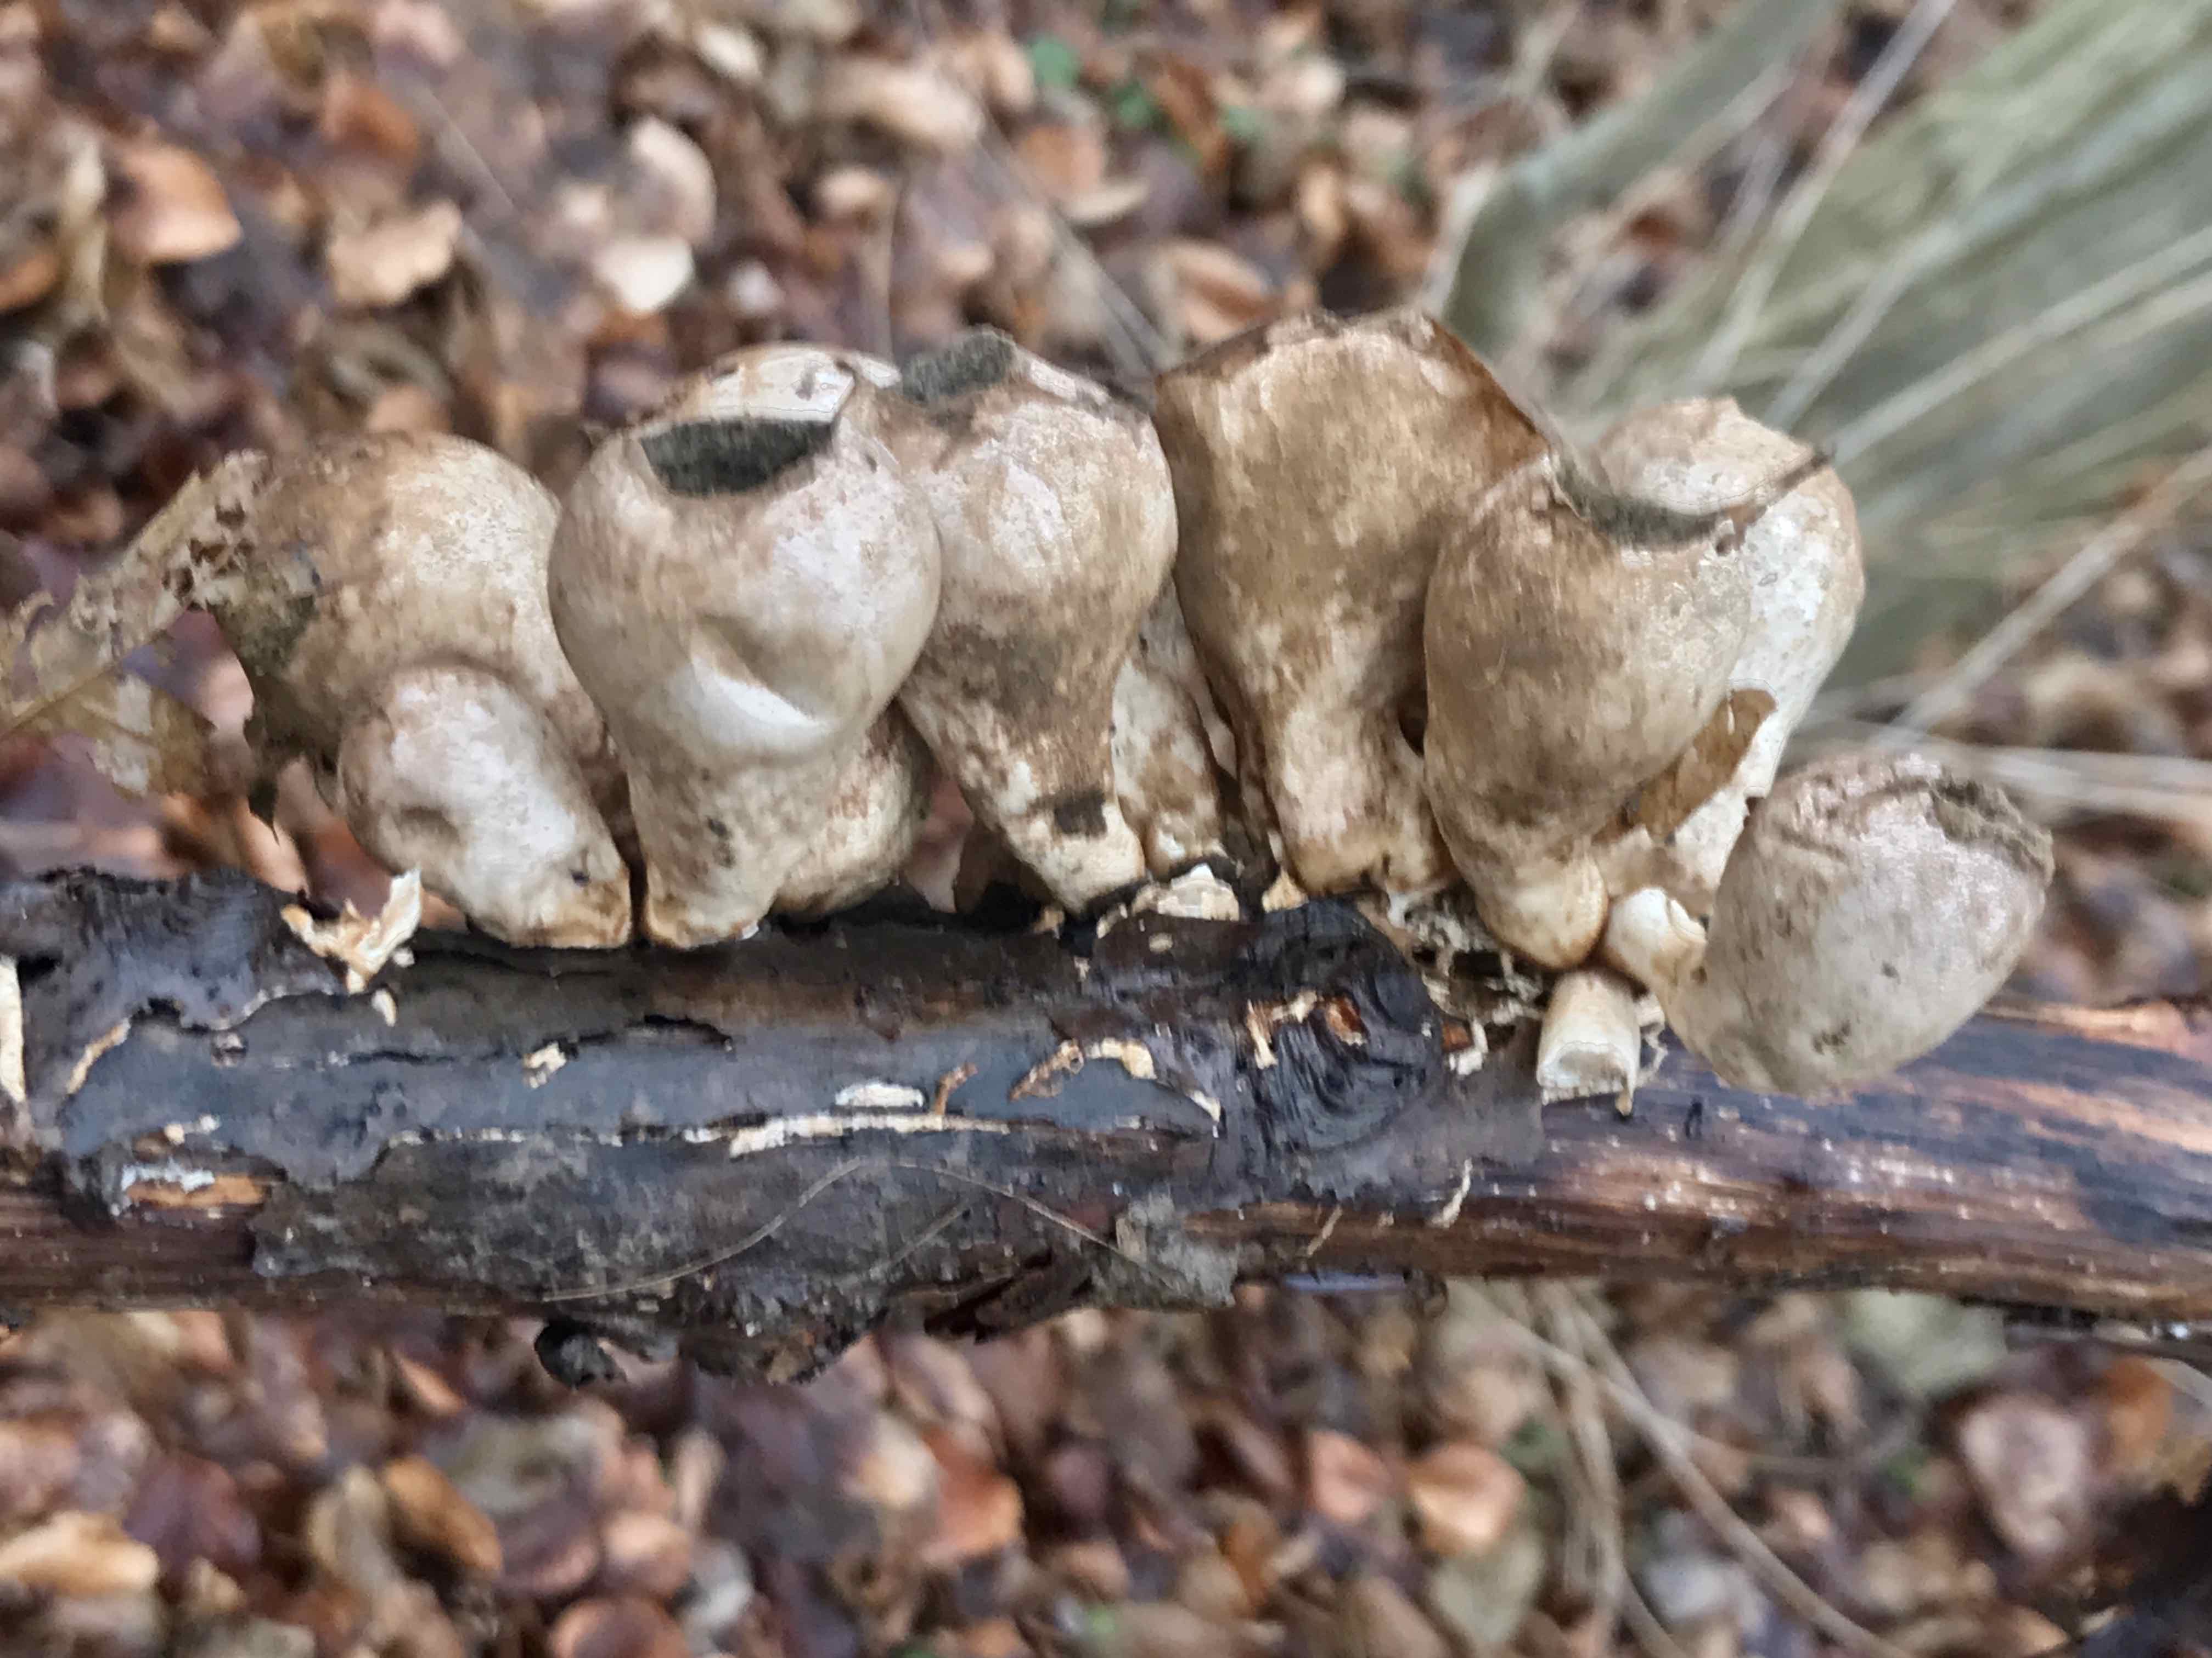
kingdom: Fungi
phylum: Basidiomycota
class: Agaricomycetes
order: Agaricales
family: Lycoperdaceae
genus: Apioperdon
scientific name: Apioperdon pyriforme
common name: pære-støvbold
